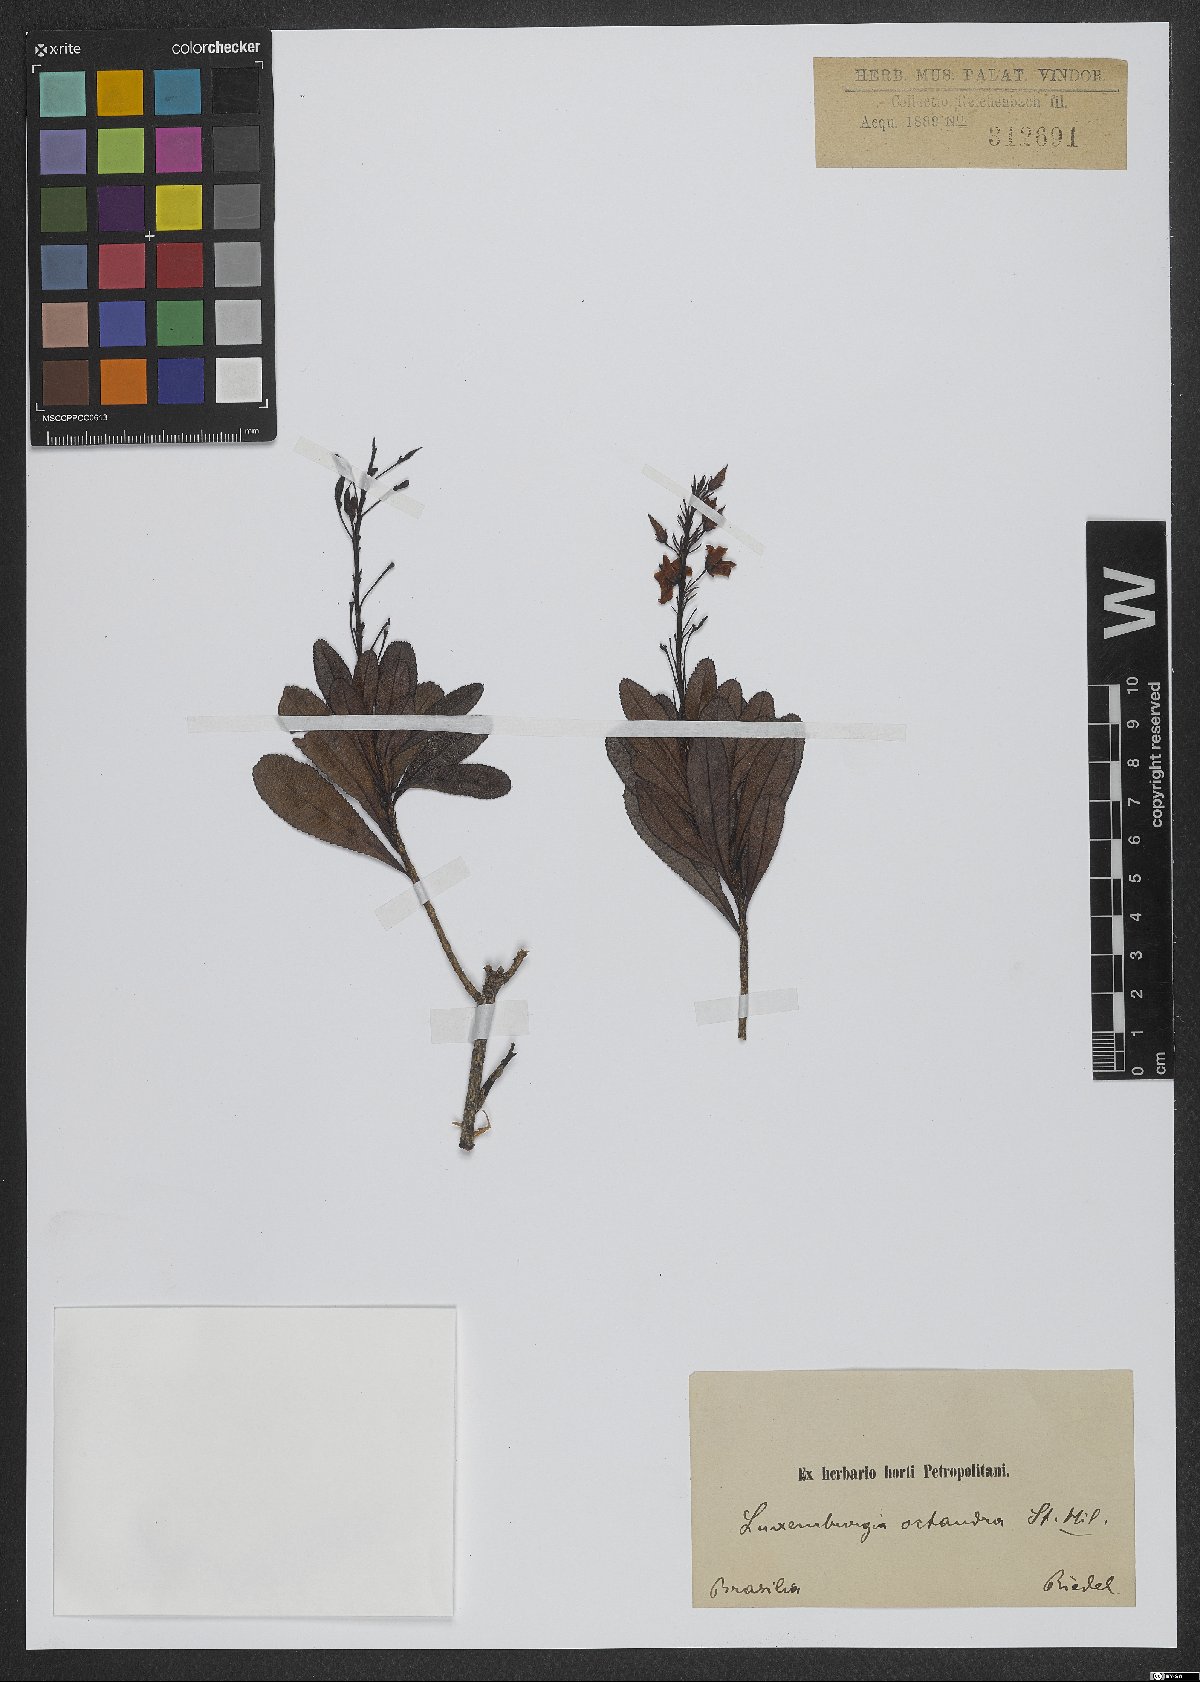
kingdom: Plantae
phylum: Tracheophyta
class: Magnoliopsida
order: Malpighiales
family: Ochnaceae
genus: Luxemburgia
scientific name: Luxemburgia octandra
